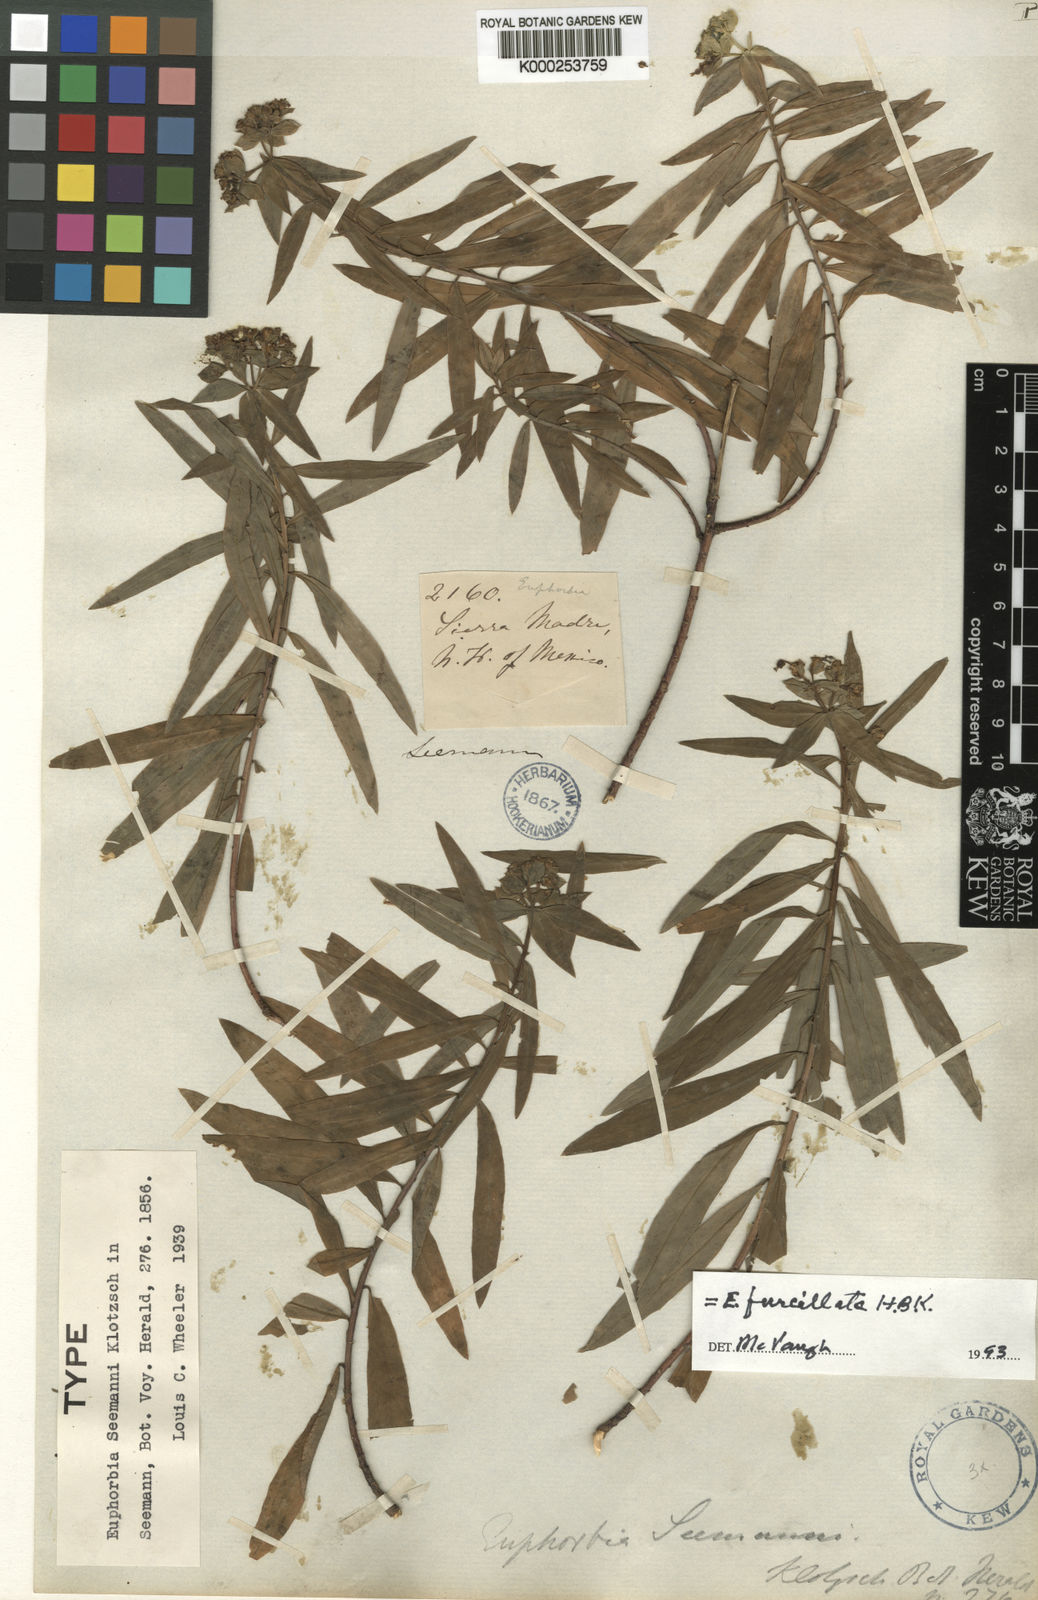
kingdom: Plantae
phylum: Tracheophyta
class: Magnoliopsida
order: Malpighiales
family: Euphorbiaceae
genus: Euphorbia
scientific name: Euphorbia esuliformis
